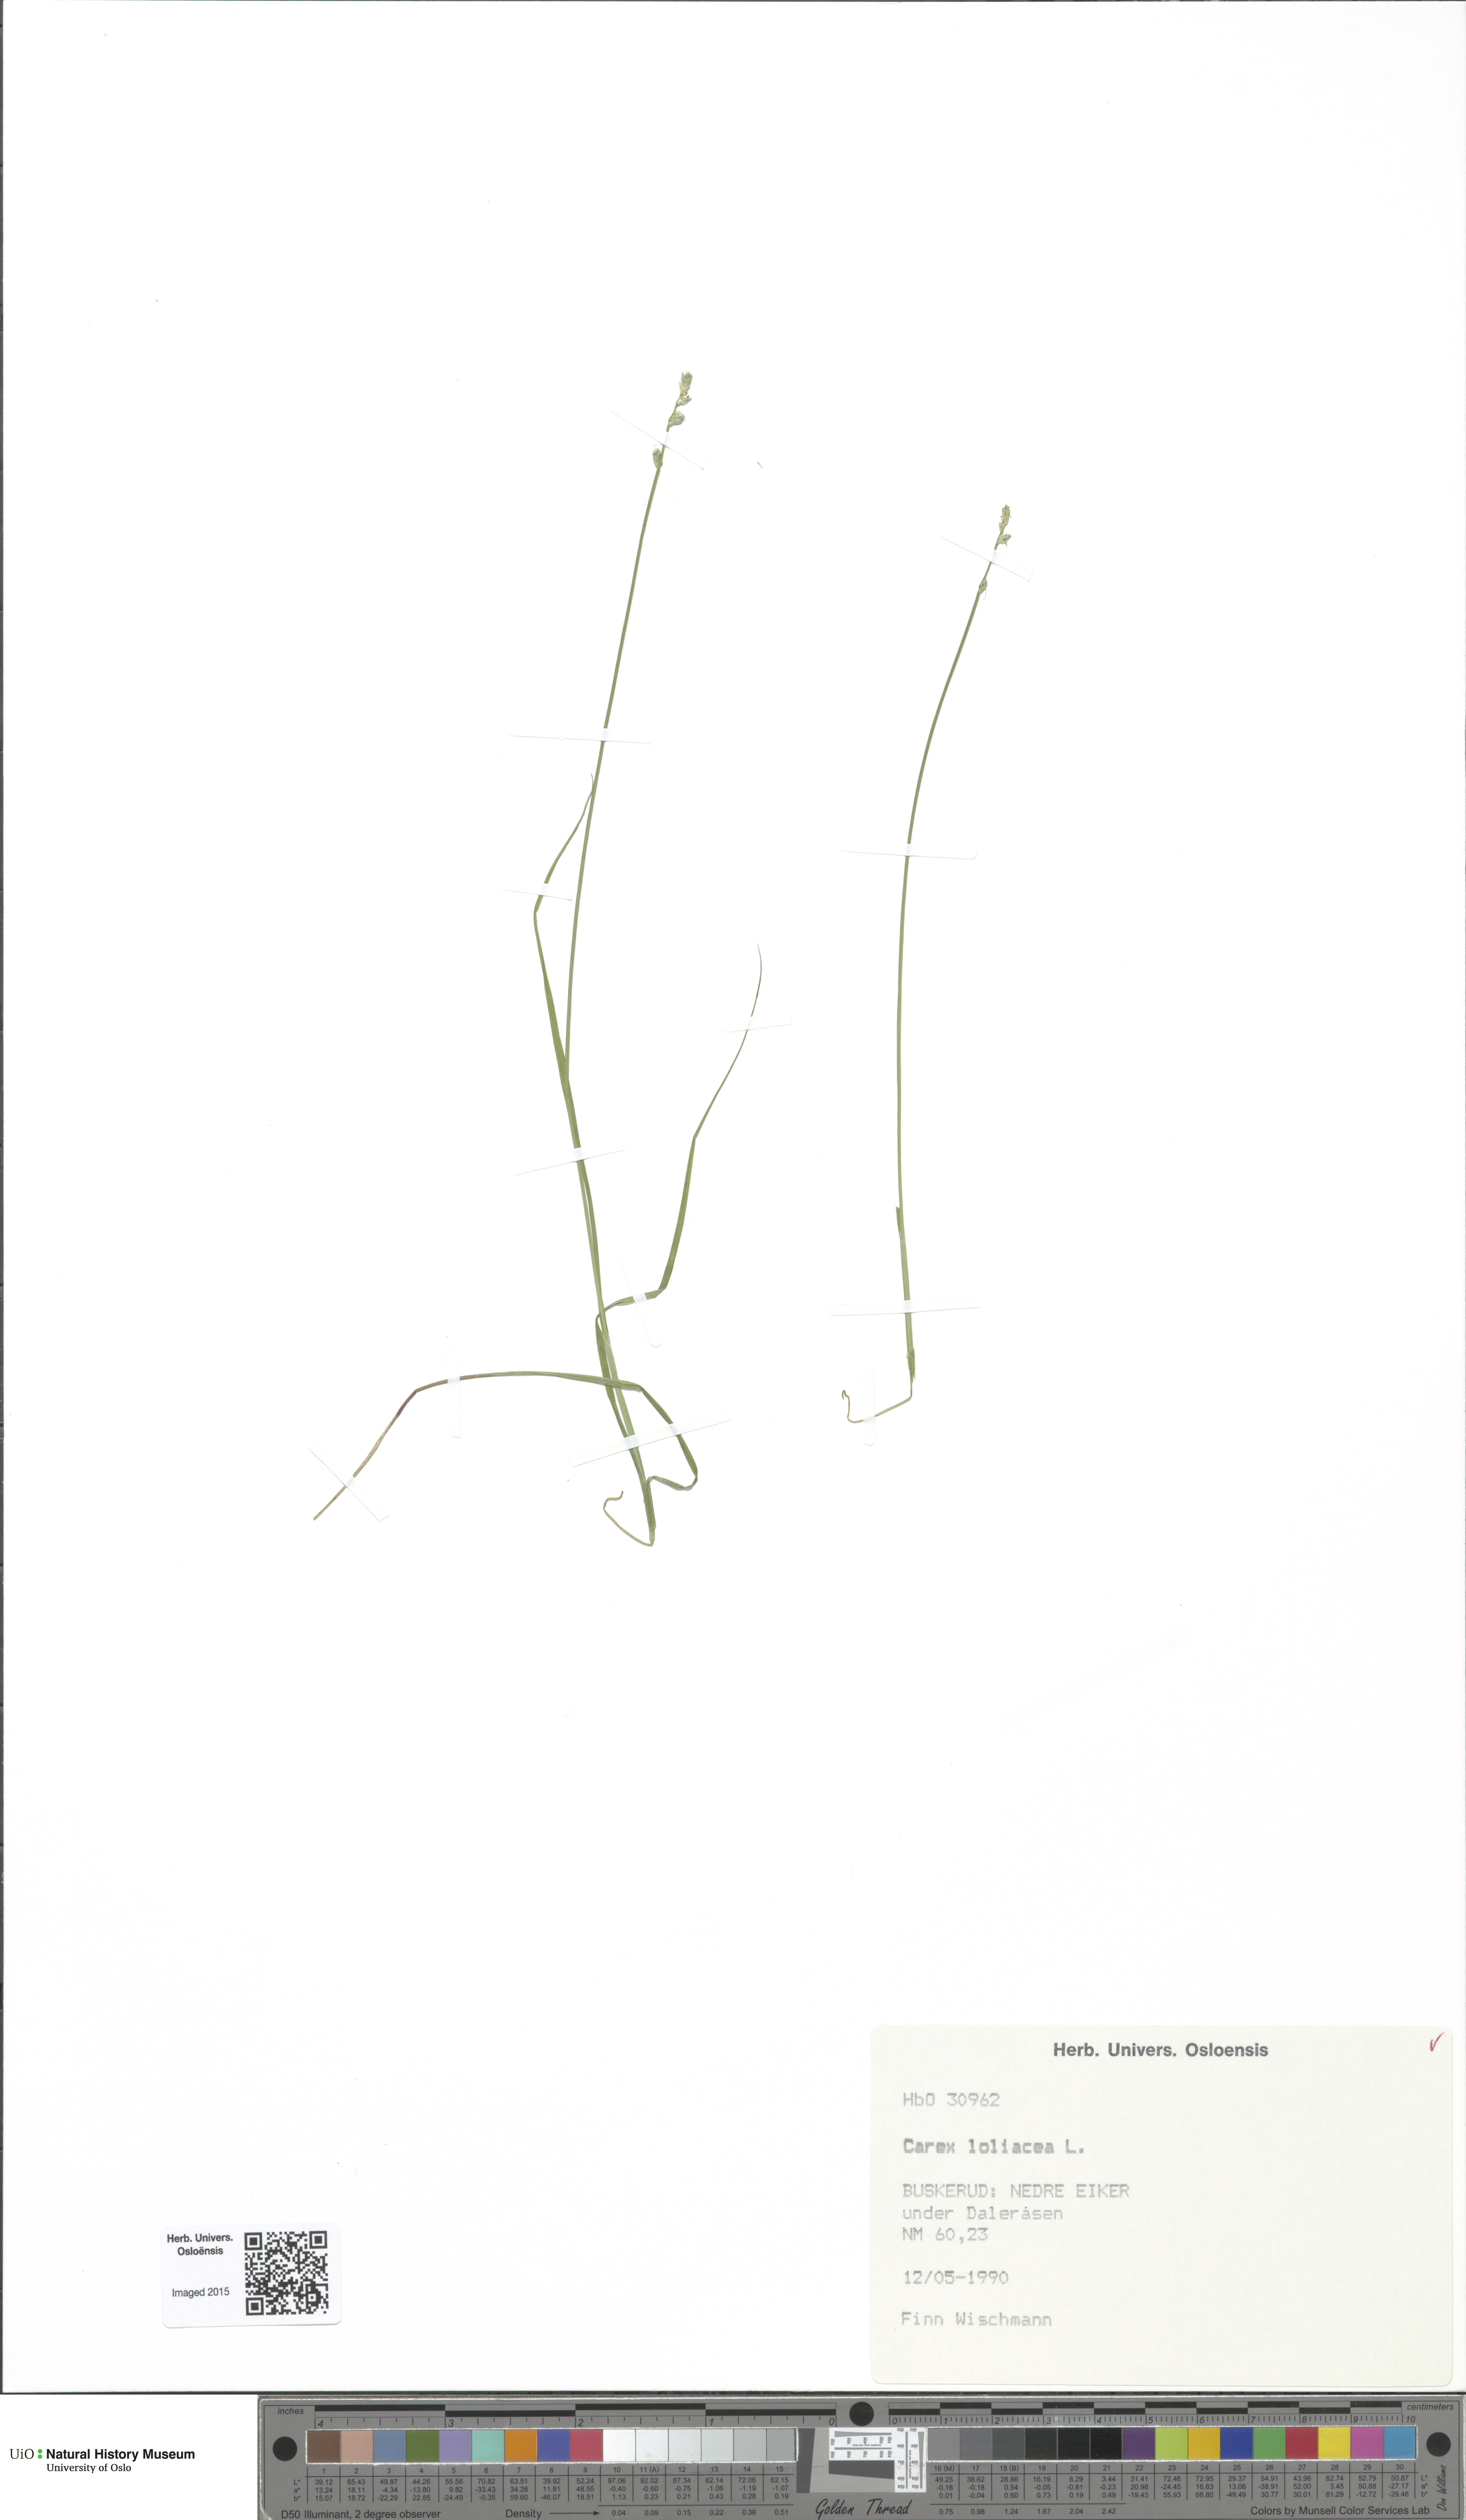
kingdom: Plantae
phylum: Tracheophyta
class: Liliopsida
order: Poales
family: Cyperaceae
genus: Carex
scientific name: Carex loliacea
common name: Ryegrass sedge
